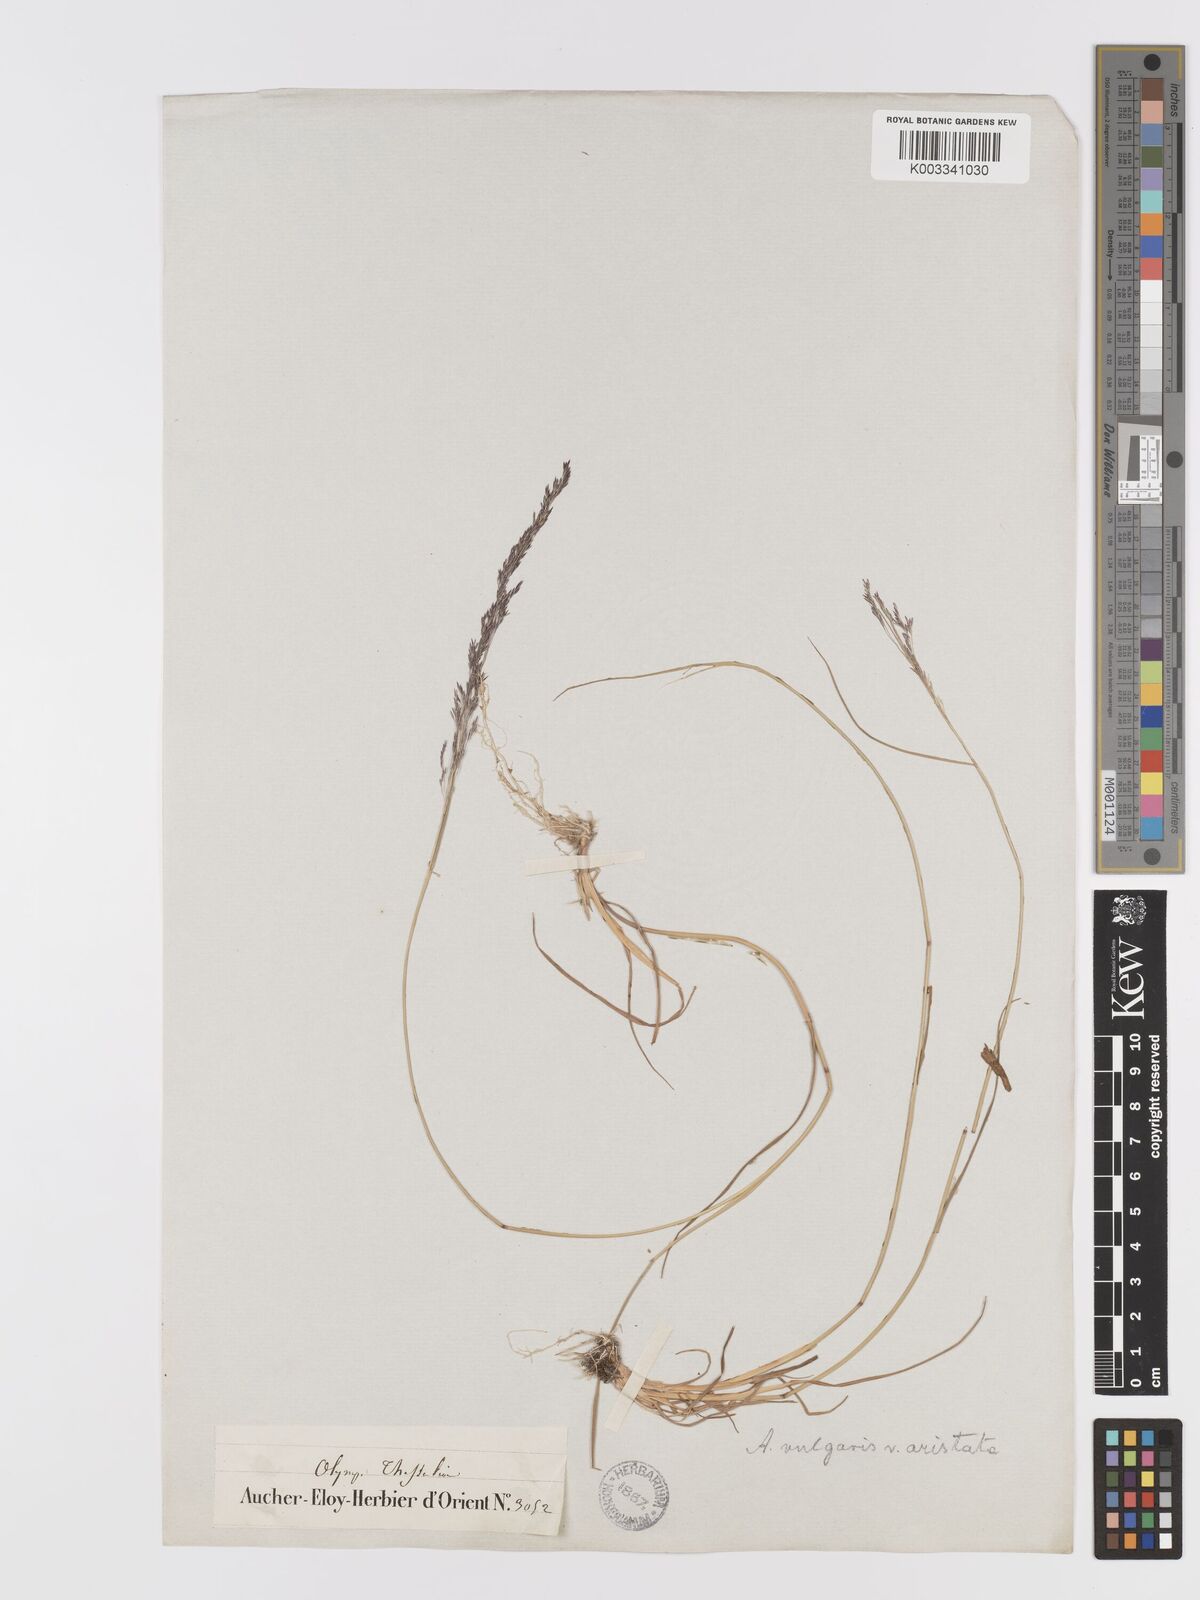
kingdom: Plantae
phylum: Tracheophyta
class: Liliopsida
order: Poales
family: Poaceae
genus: Agrostis
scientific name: Agrostis capillaris
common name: Colonial bentgrass
